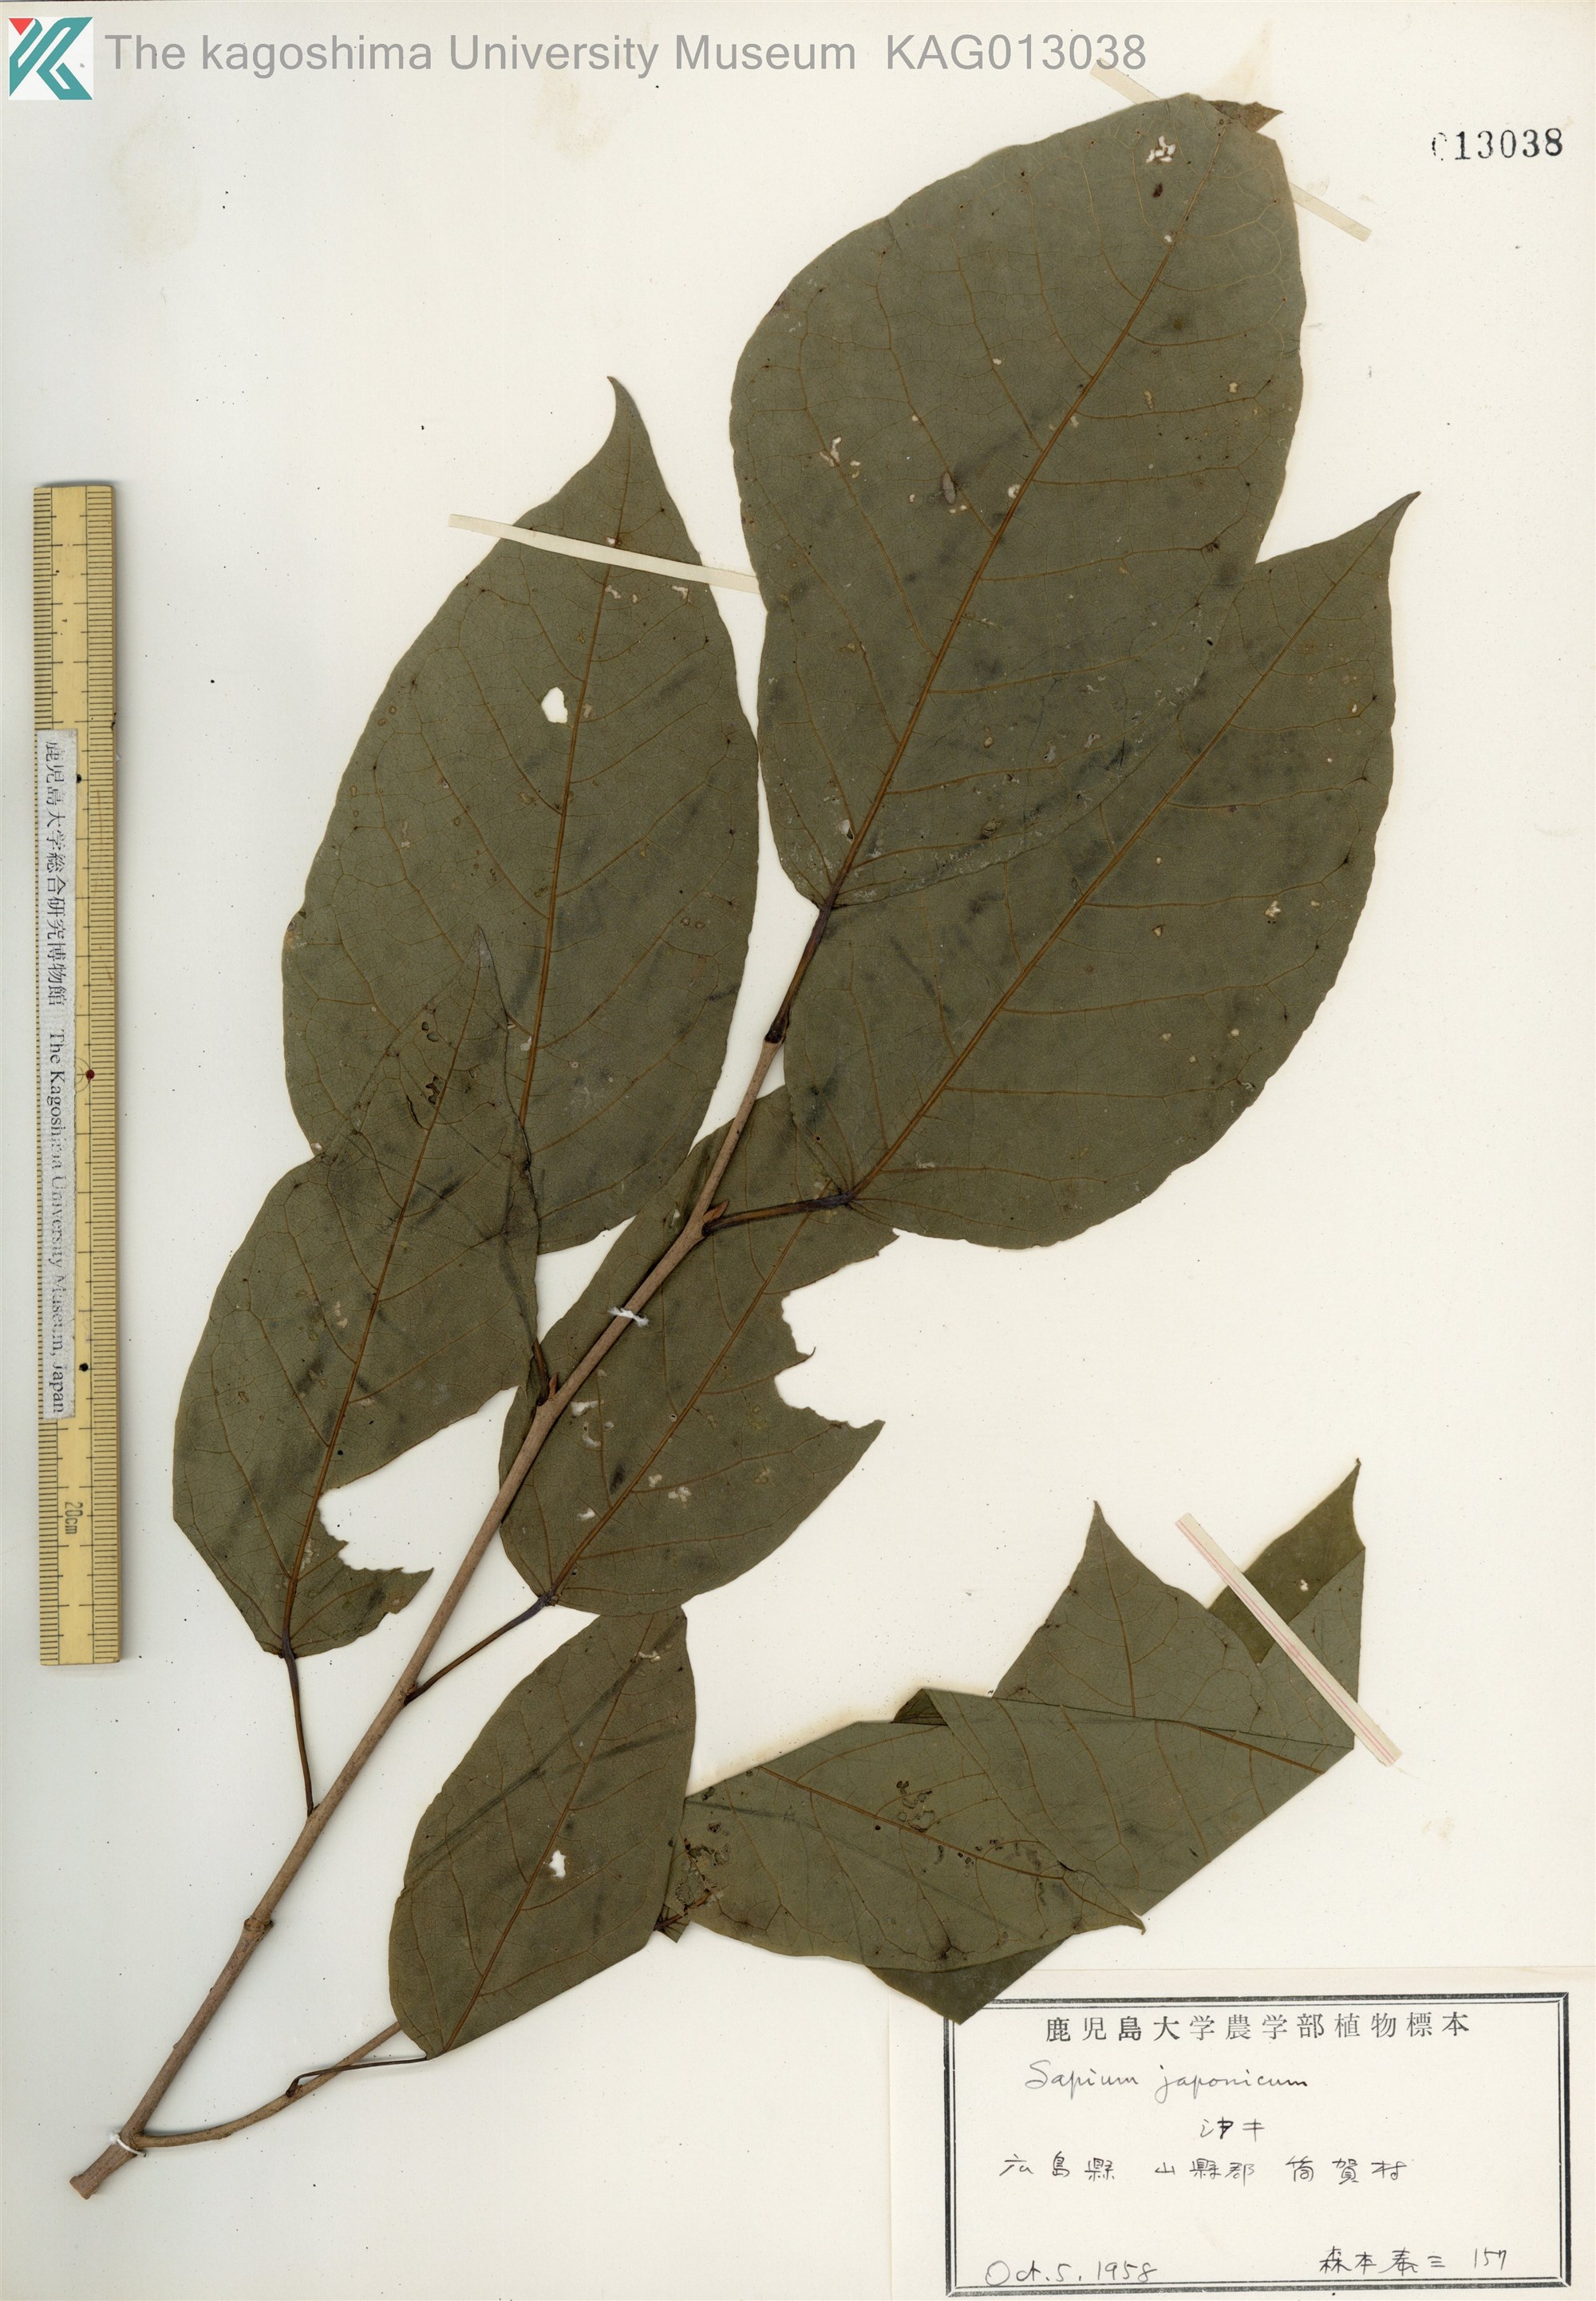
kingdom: Plantae
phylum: Tracheophyta
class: Magnoliopsida
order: Malpighiales
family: Euphorbiaceae
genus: Neoshirakia
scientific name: Neoshirakia japonica
